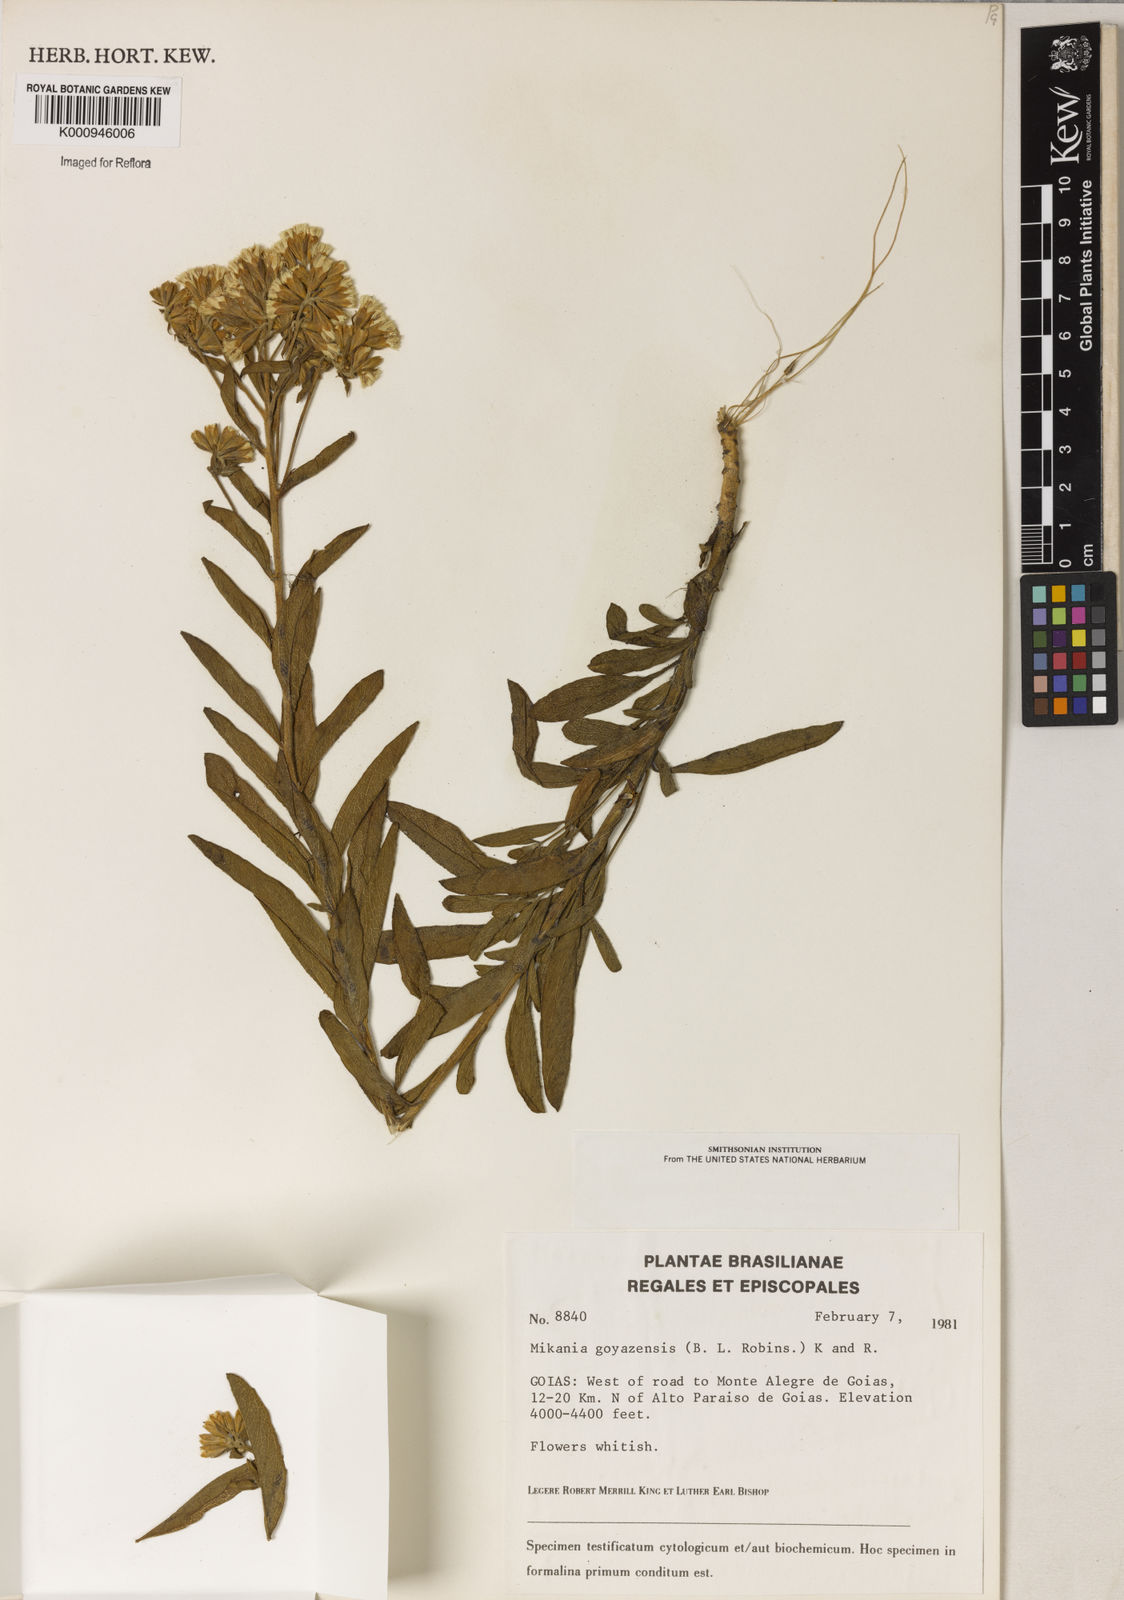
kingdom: Plantae
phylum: Tracheophyta
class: Magnoliopsida
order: Asterales
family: Asteraceae
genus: Mikania
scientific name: Mikania goyazensis
